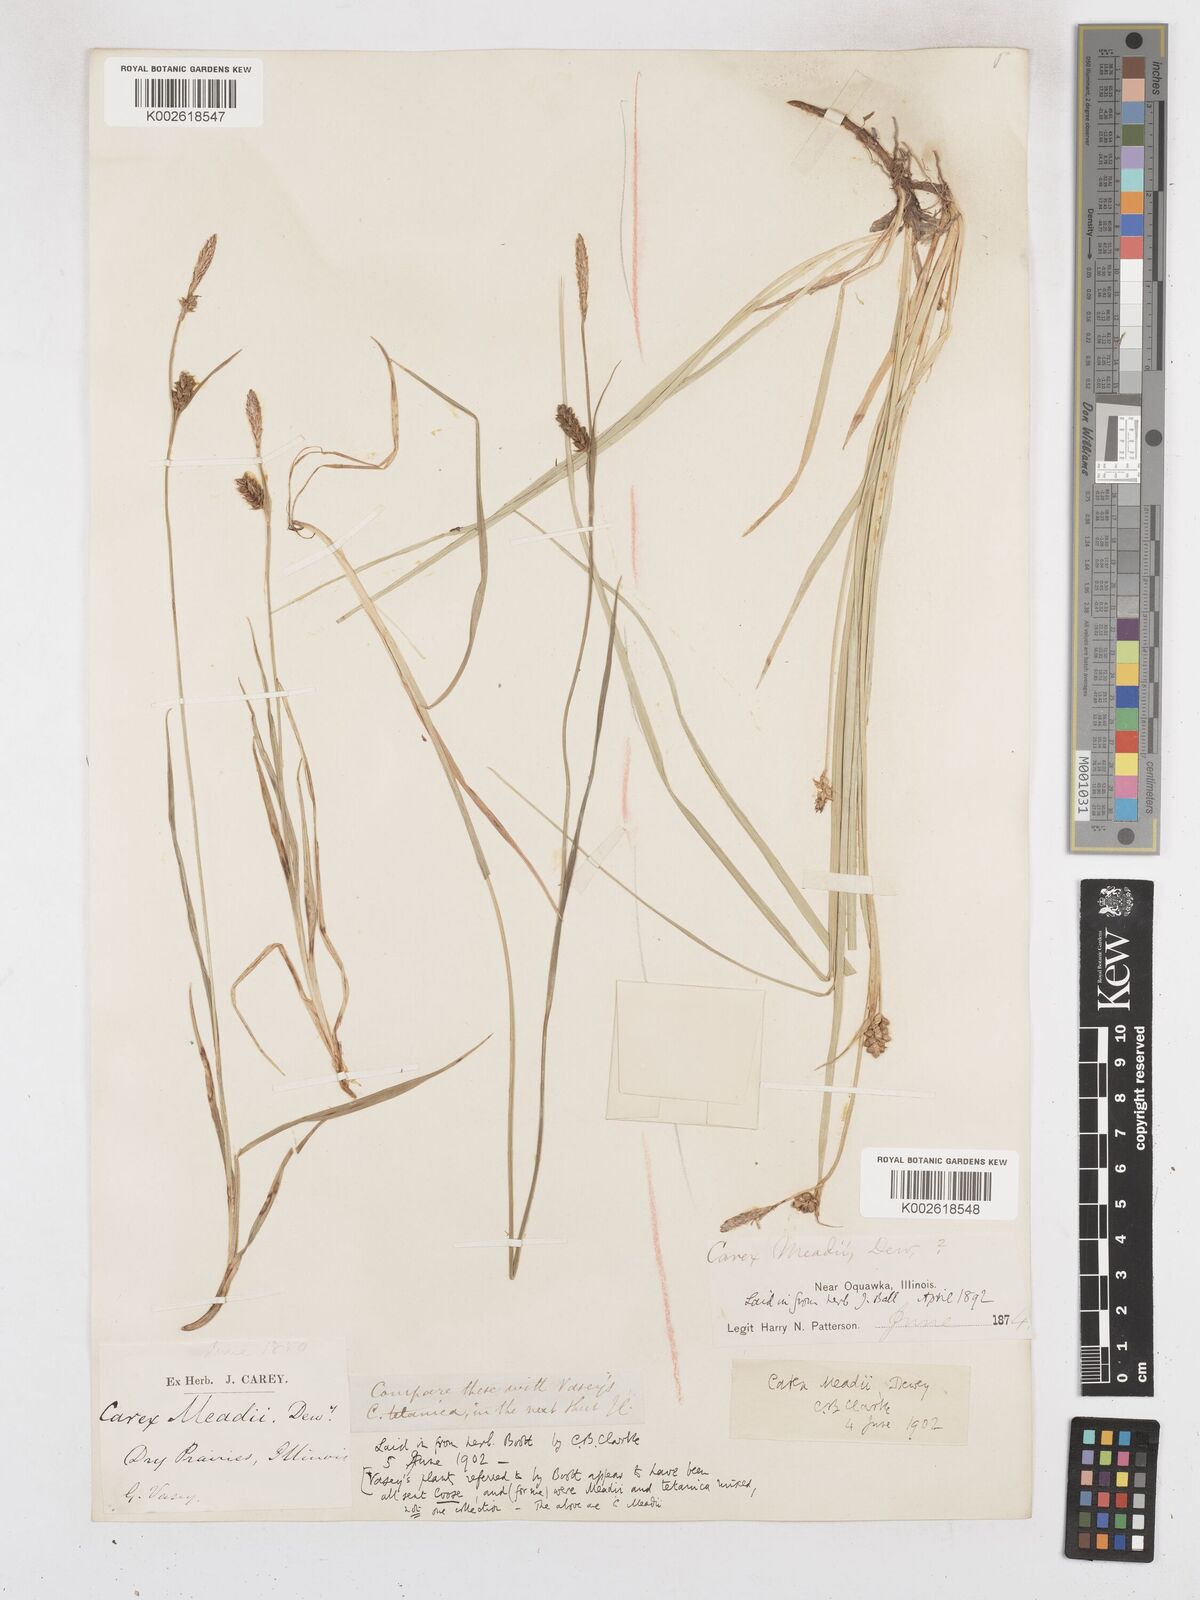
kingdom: Plantae
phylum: Tracheophyta
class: Liliopsida
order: Poales
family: Cyperaceae
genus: Carex
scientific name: Carex meadii
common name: Mead's sedge
